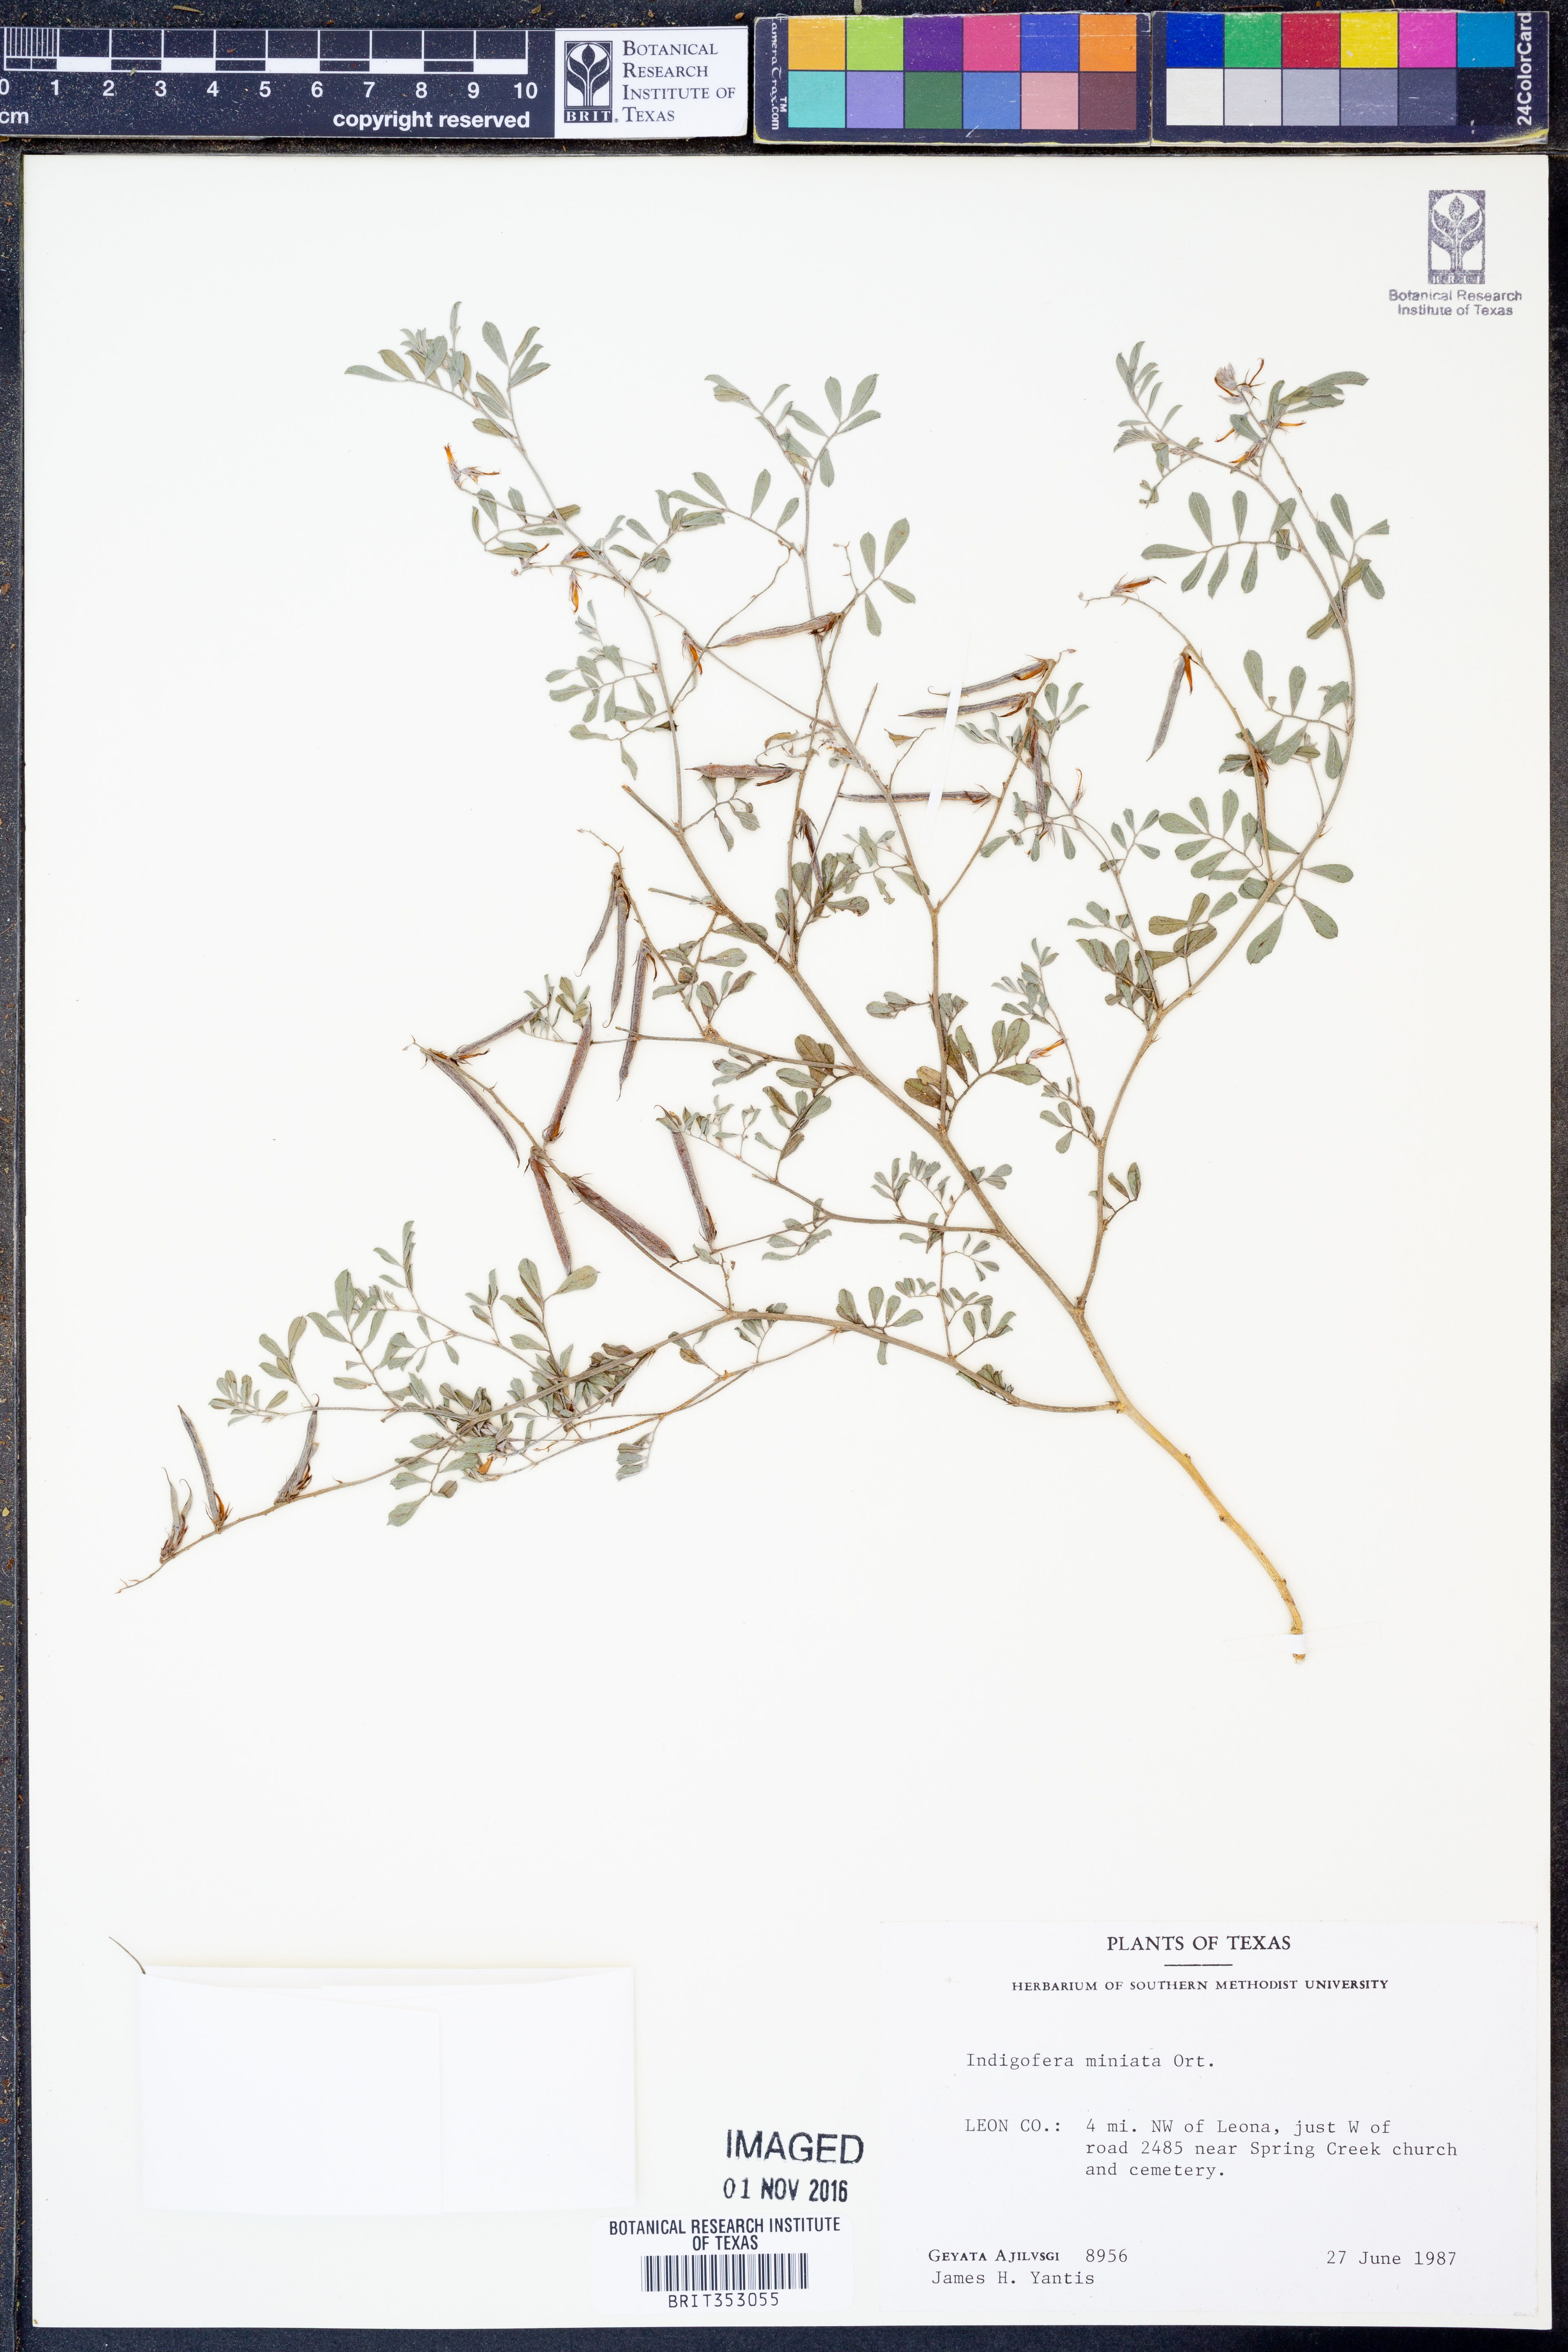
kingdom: Plantae
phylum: Tracheophyta
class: Magnoliopsida
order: Fabales
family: Fabaceae
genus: Indigofera
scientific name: Indigofera miniata
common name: Coast indigo
